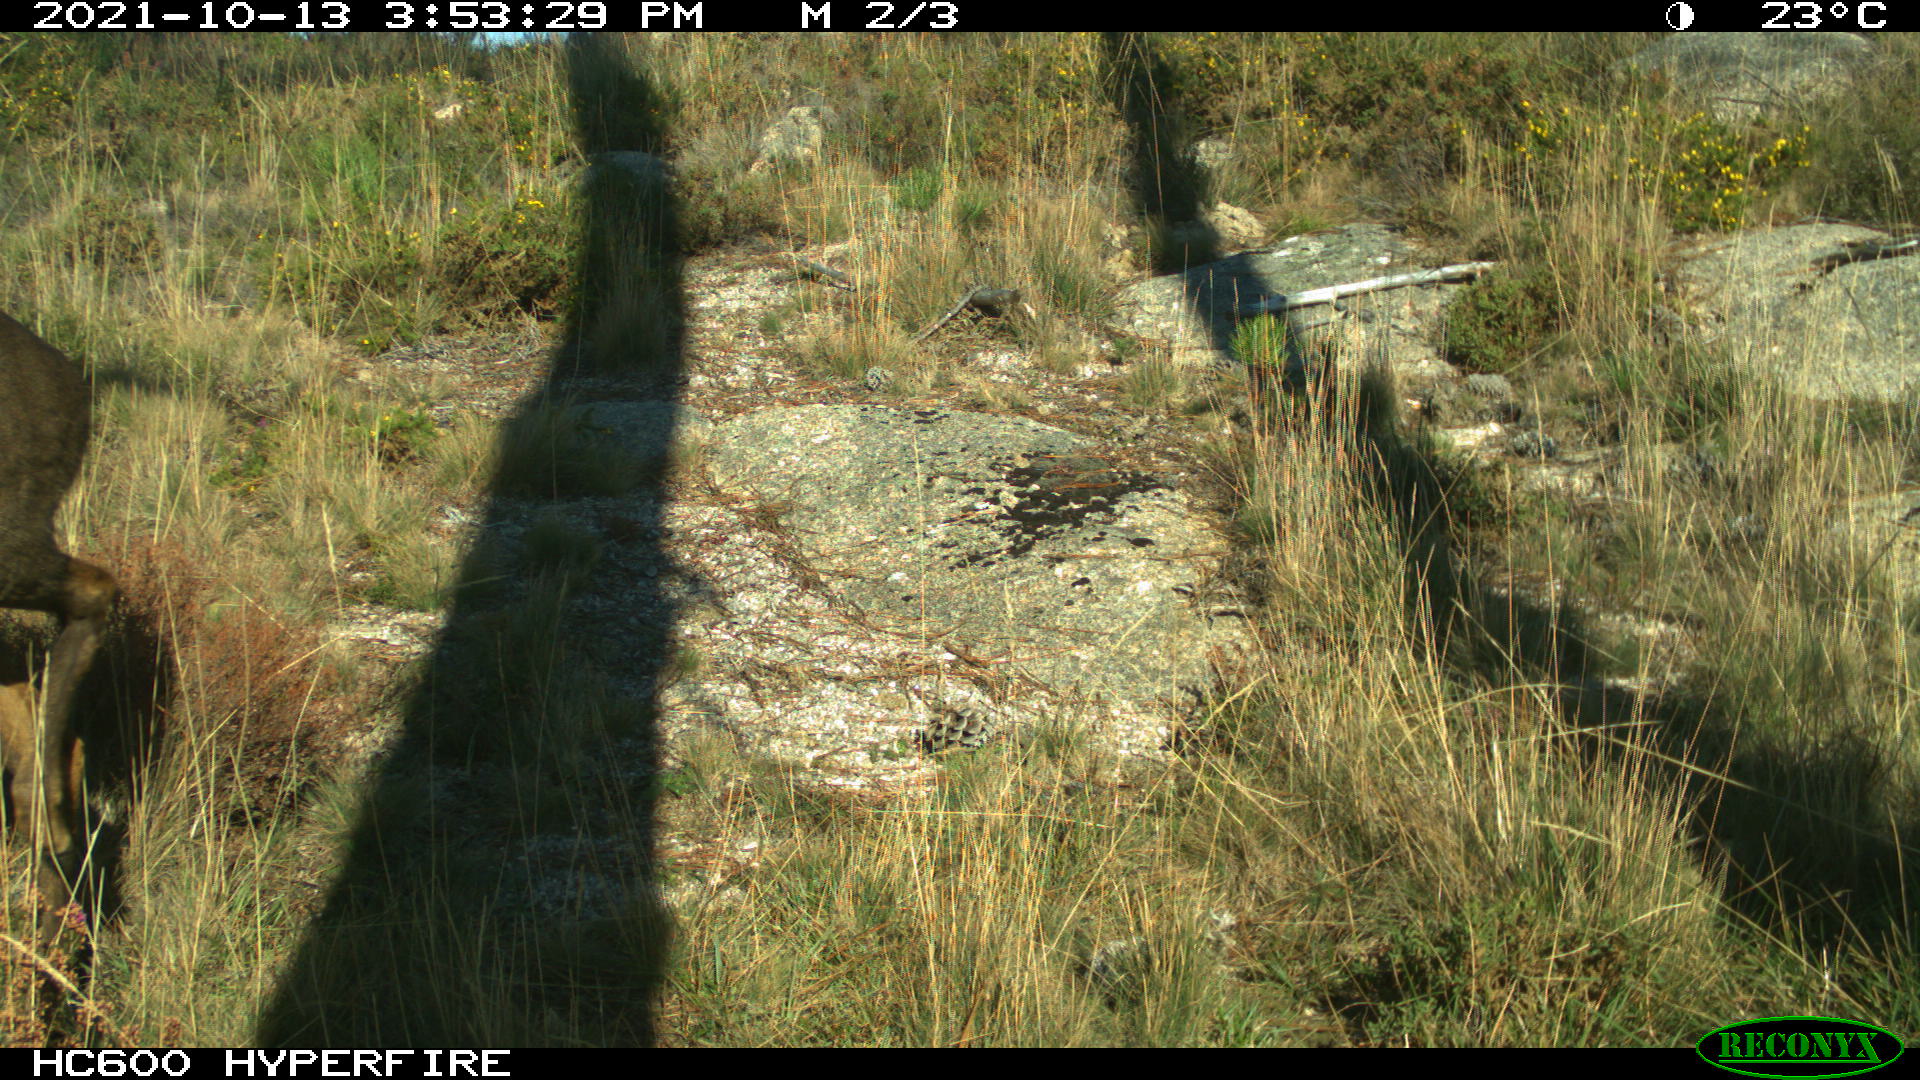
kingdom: Animalia
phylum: Chordata
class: Mammalia
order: Artiodactyla
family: Cervidae
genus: Capreolus
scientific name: Capreolus capreolus
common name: Western roe deer
